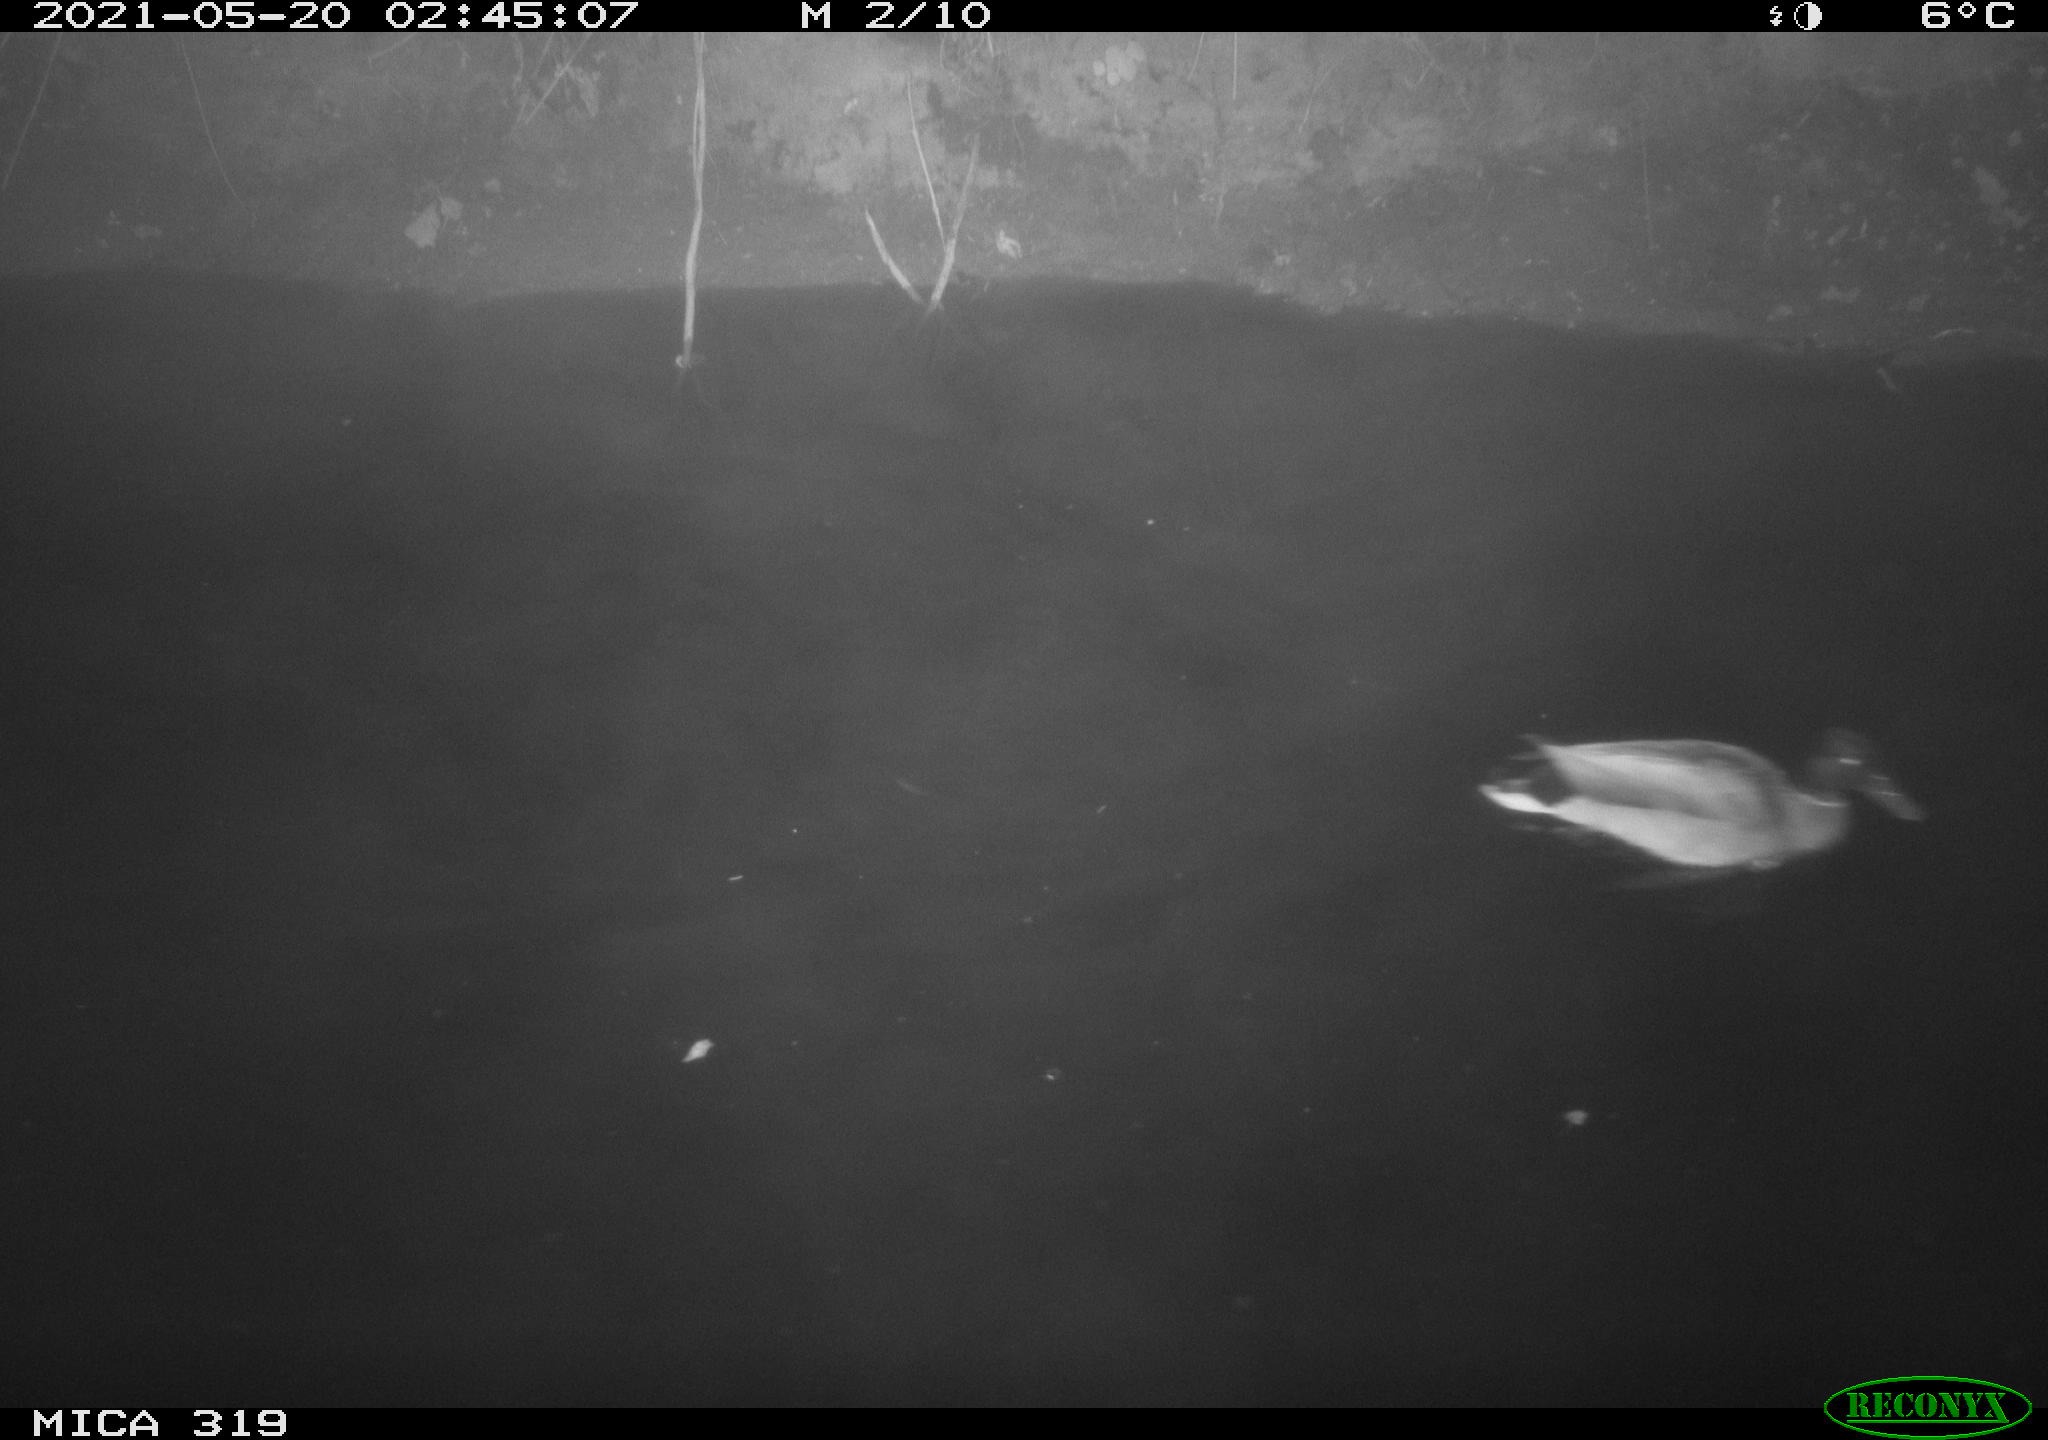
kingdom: Animalia
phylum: Chordata
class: Aves
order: Anseriformes
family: Anatidae
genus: Anas
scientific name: Anas platyrhynchos
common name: Mallard
